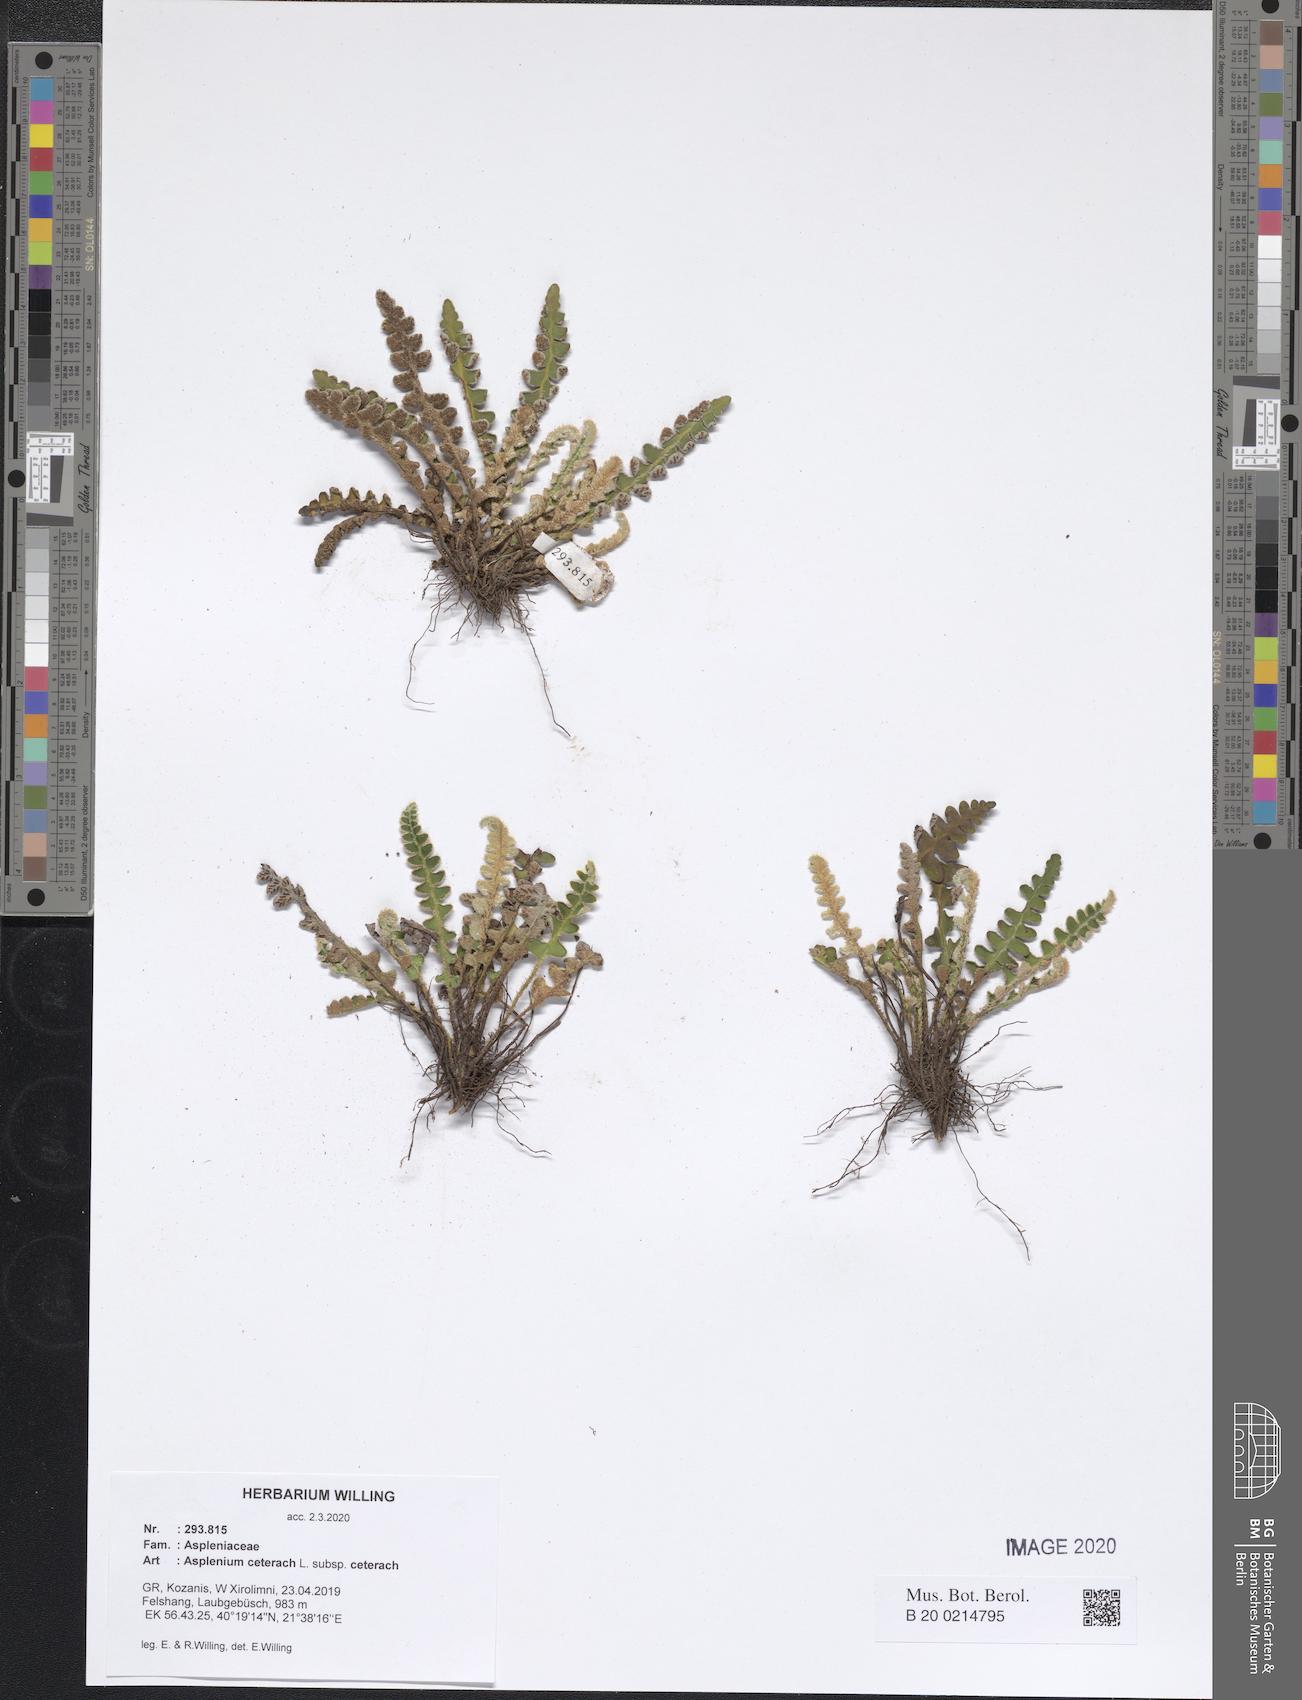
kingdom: Plantae
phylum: Tracheophyta
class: Polypodiopsida
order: Polypodiales
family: Aspleniaceae
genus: Asplenium
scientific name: Asplenium ceterach
